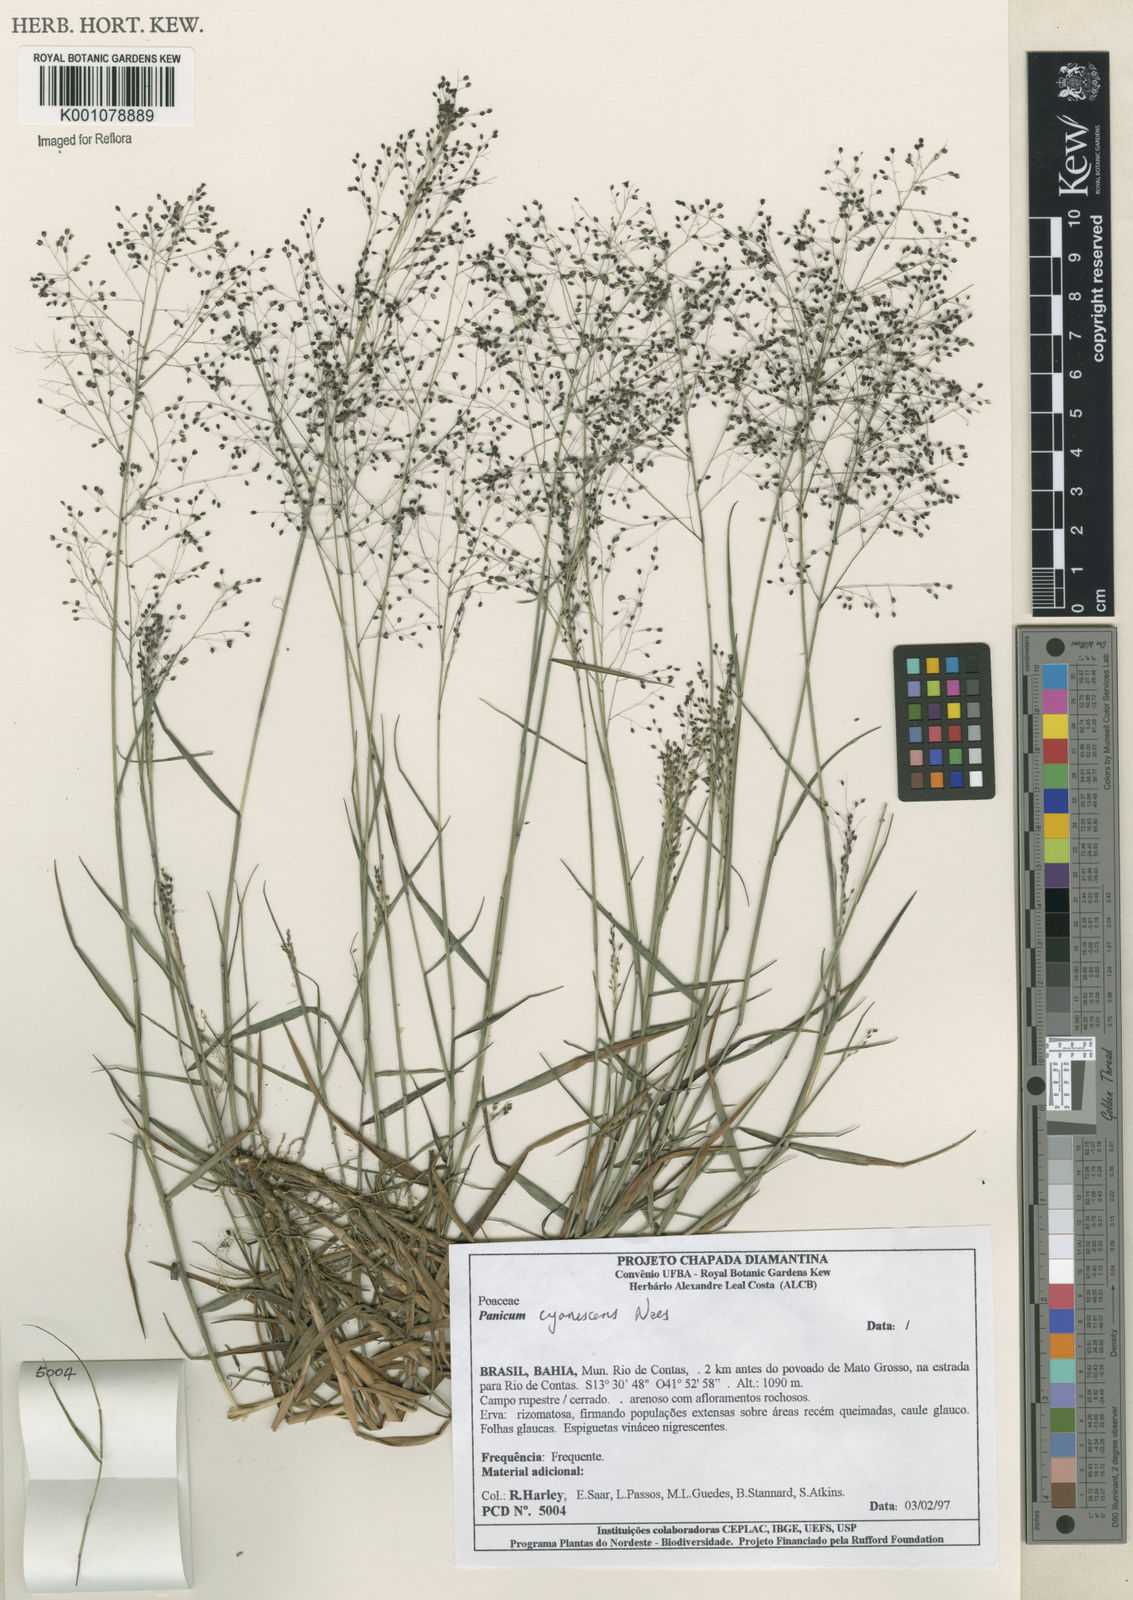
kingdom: Plantae
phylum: Tracheophyta
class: Liliopsida
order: Poales
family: Poaceae
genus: Trichanthecium
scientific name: Trichanthecium cyanescens
